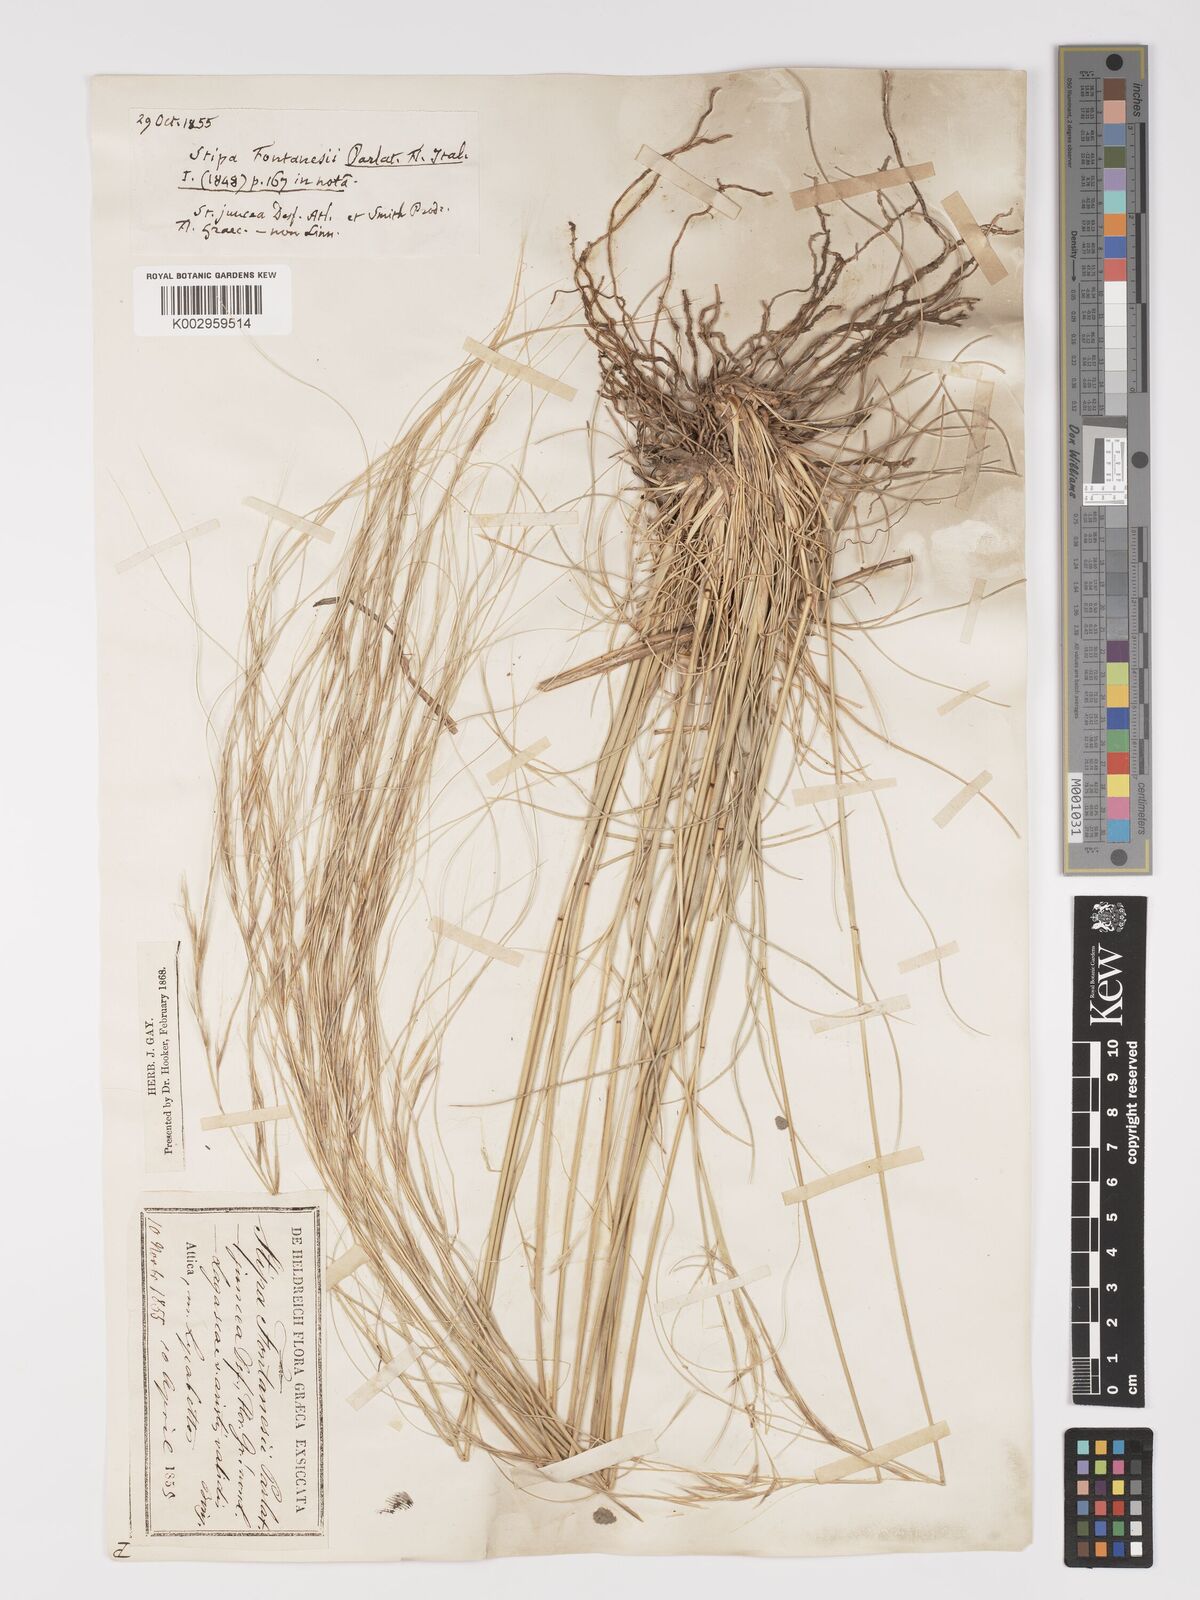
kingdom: Plantae
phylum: Tracheophyta
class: Liliopsida
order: Poales
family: Poaceae
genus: Stipa
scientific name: Stipa holosericea
